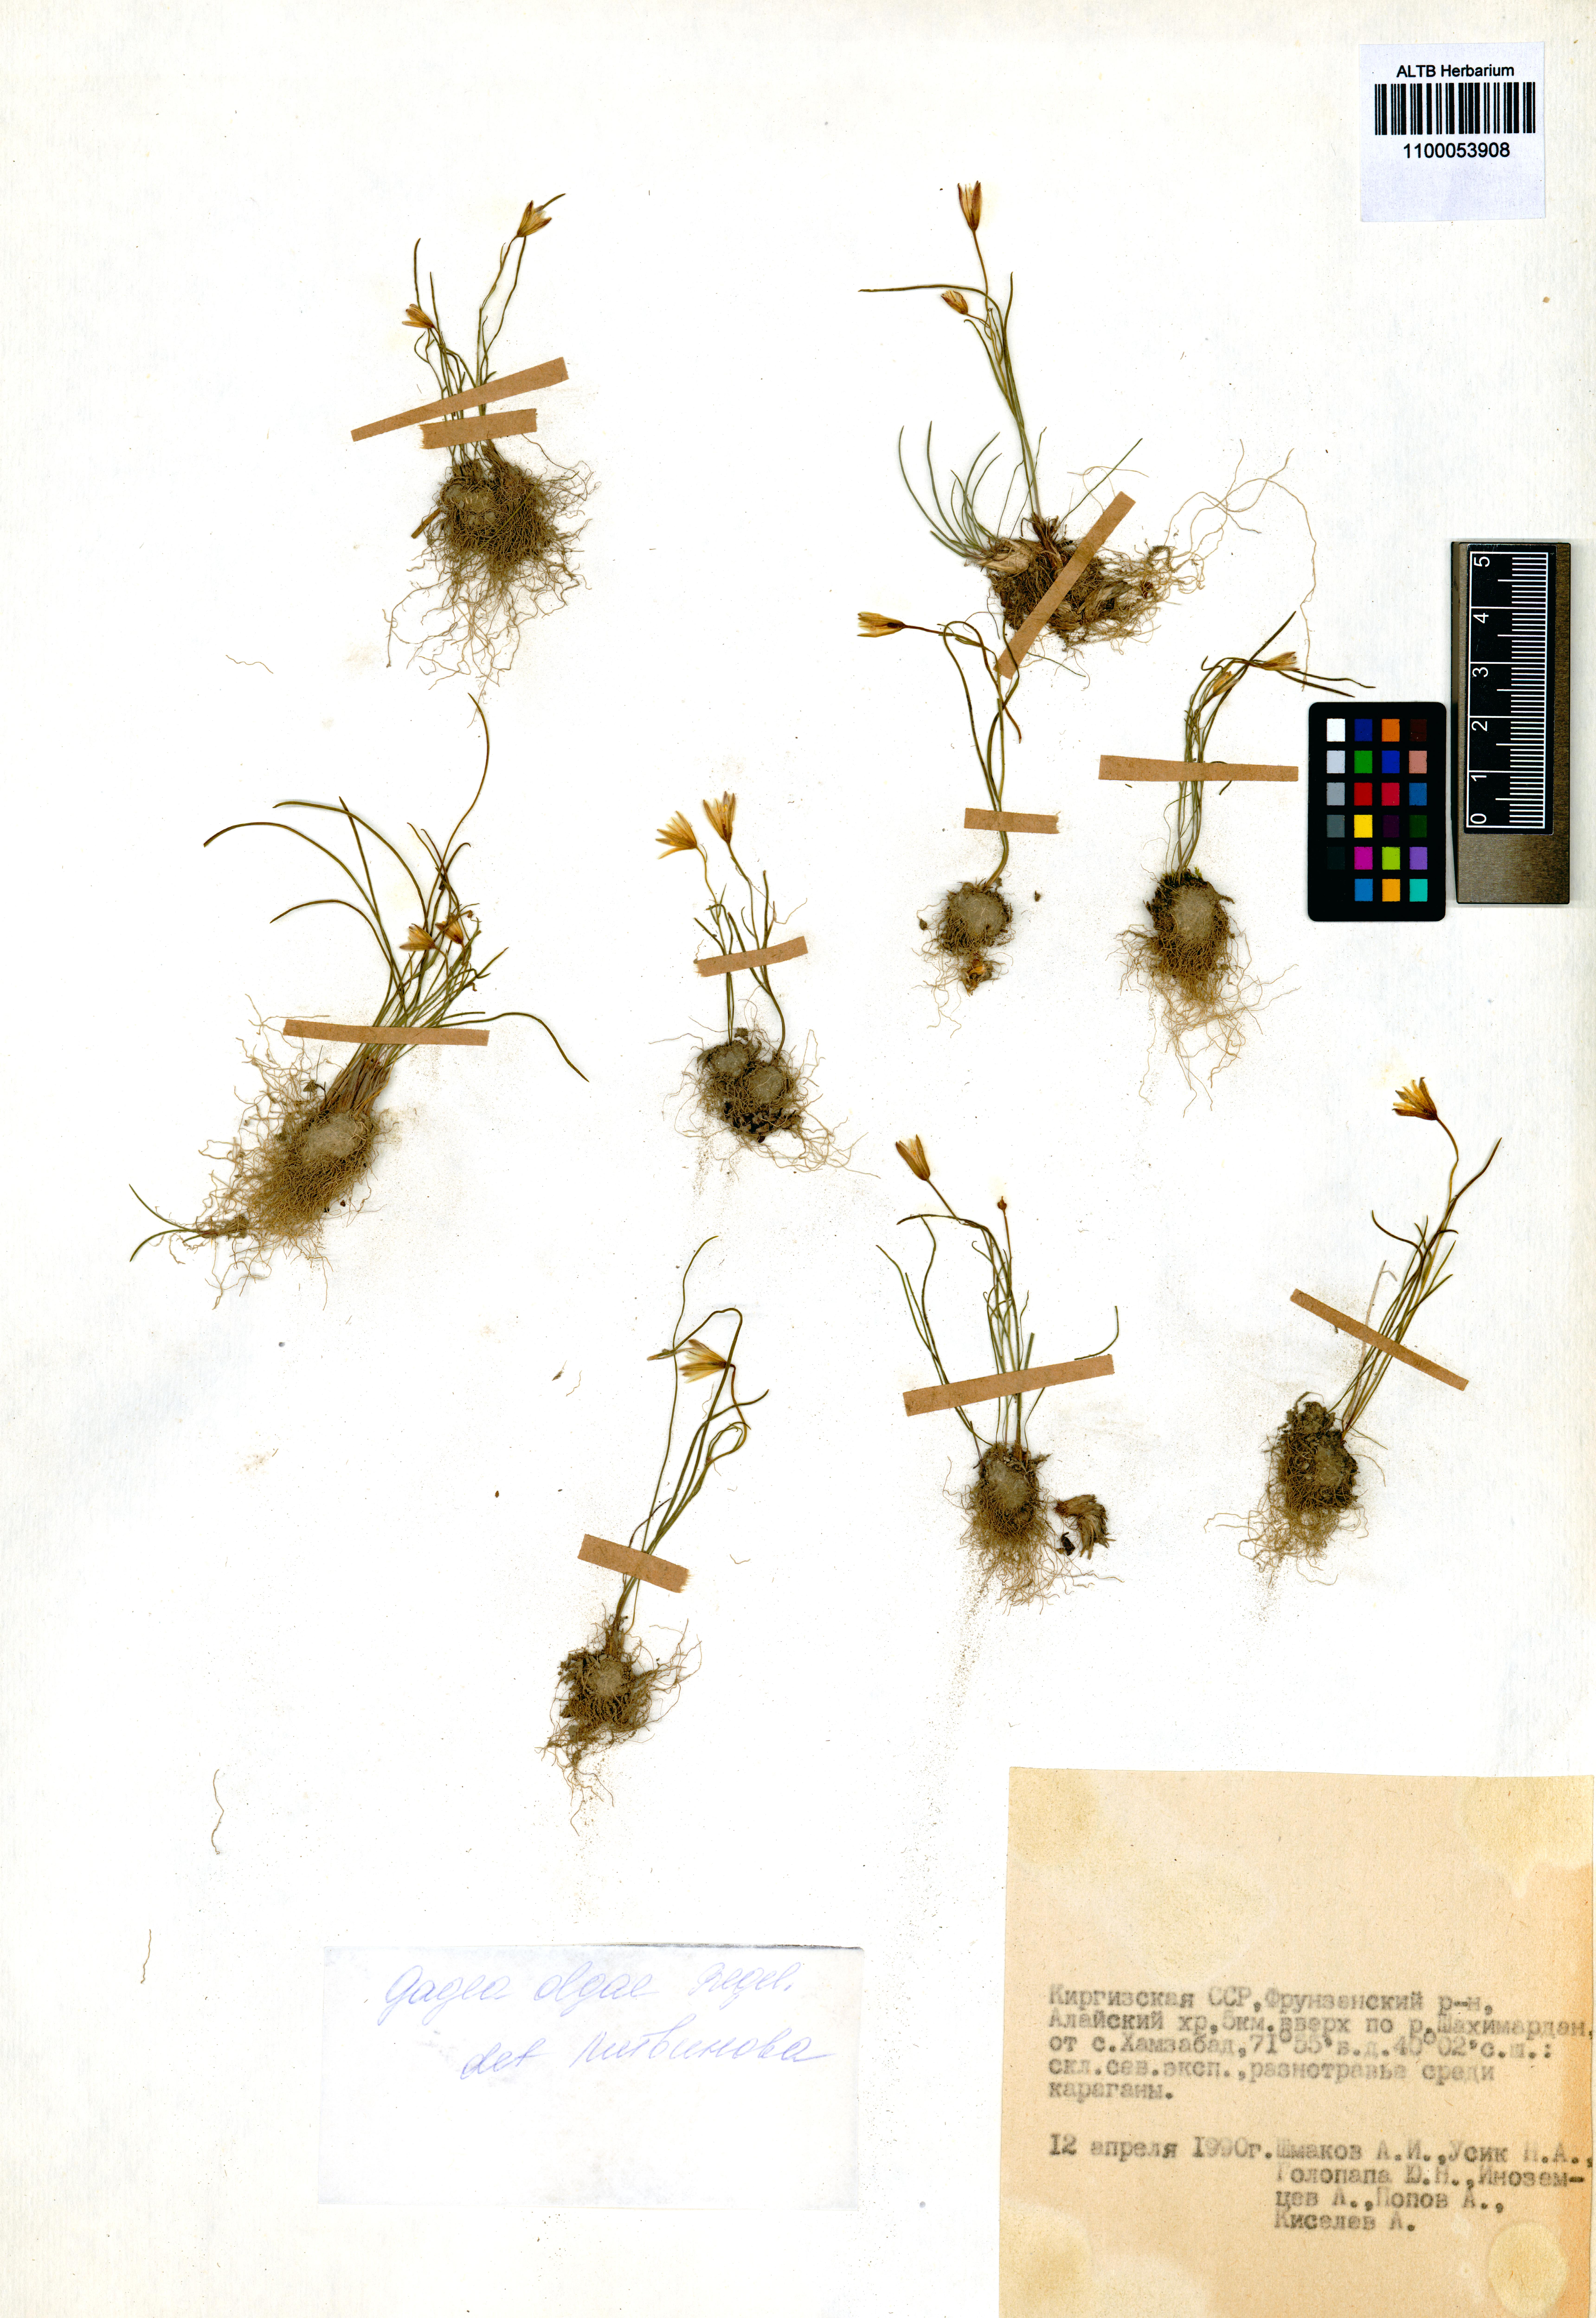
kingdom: Plantae
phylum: Tracheophyta
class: Liliopsida
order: Liliales
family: Liliaceae
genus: Gagea
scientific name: Gagea olgae
